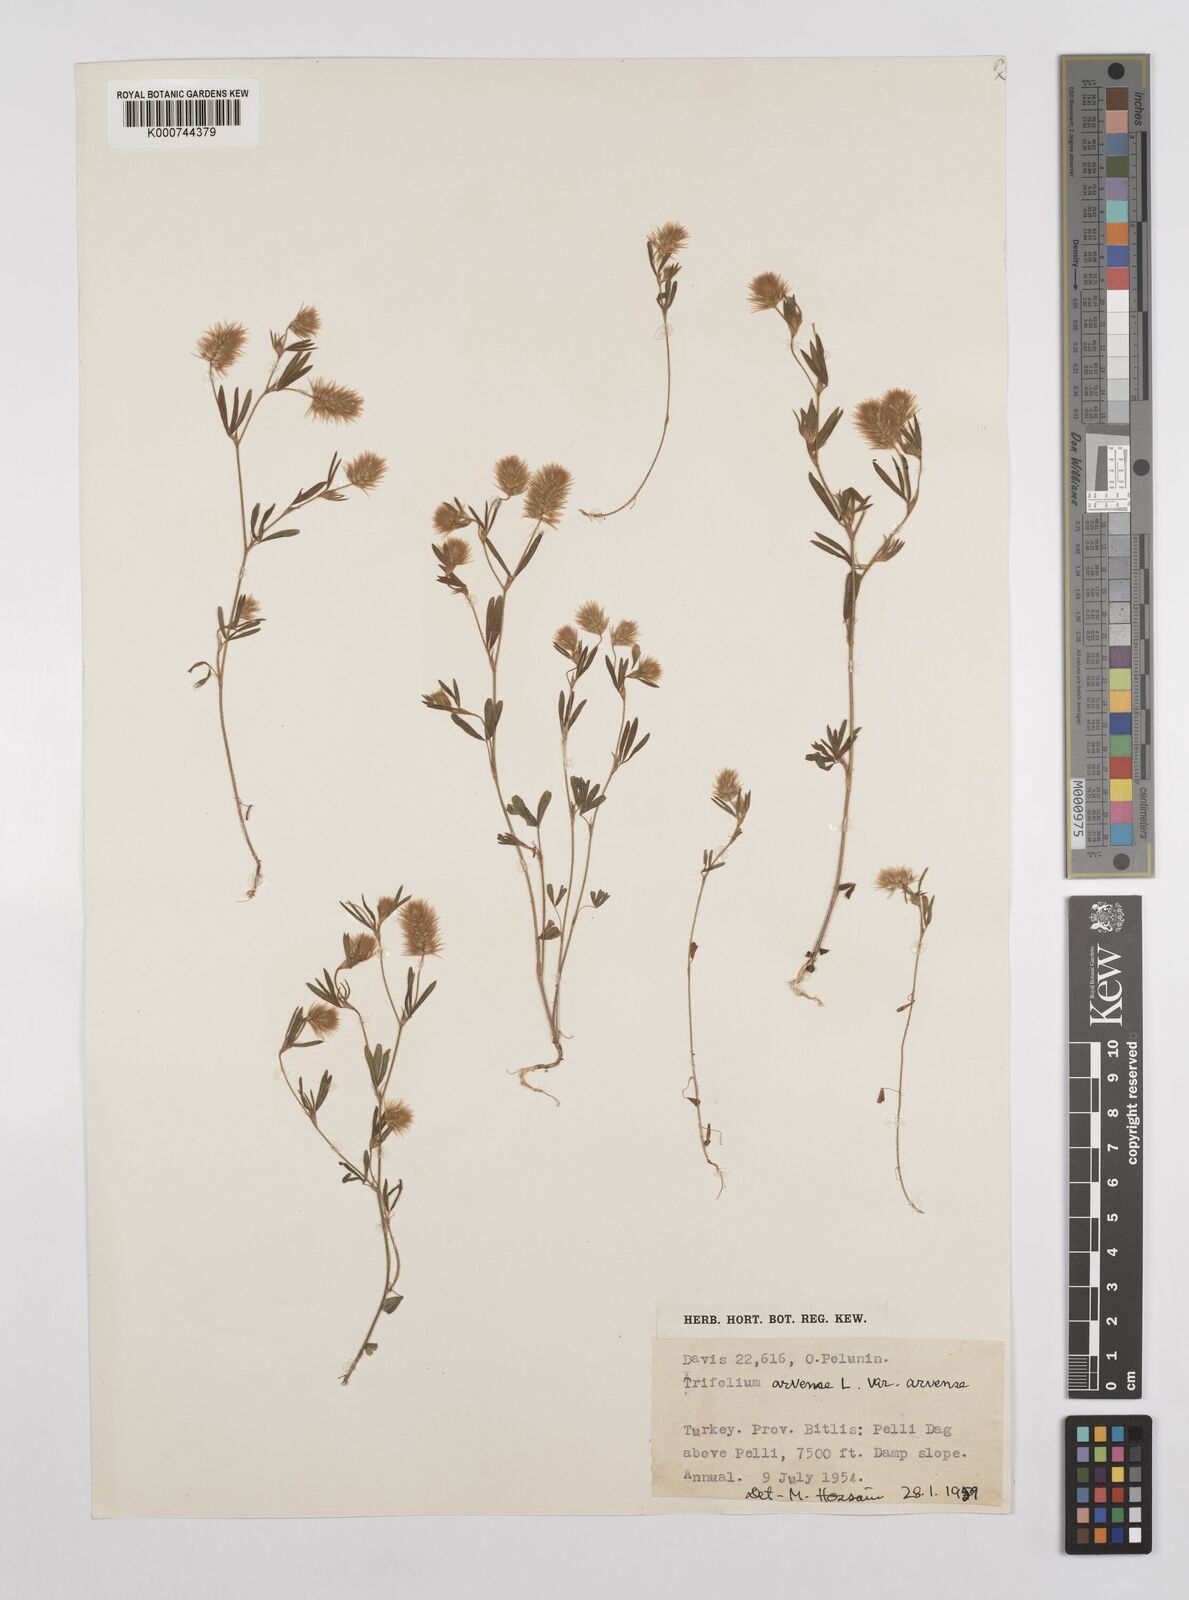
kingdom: Plantae
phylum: Tracheophyta
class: Magnoliopsida
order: Fabales
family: Fabaceae
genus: Trifolium
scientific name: Trifolium arvense
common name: Hare's-foot clover
